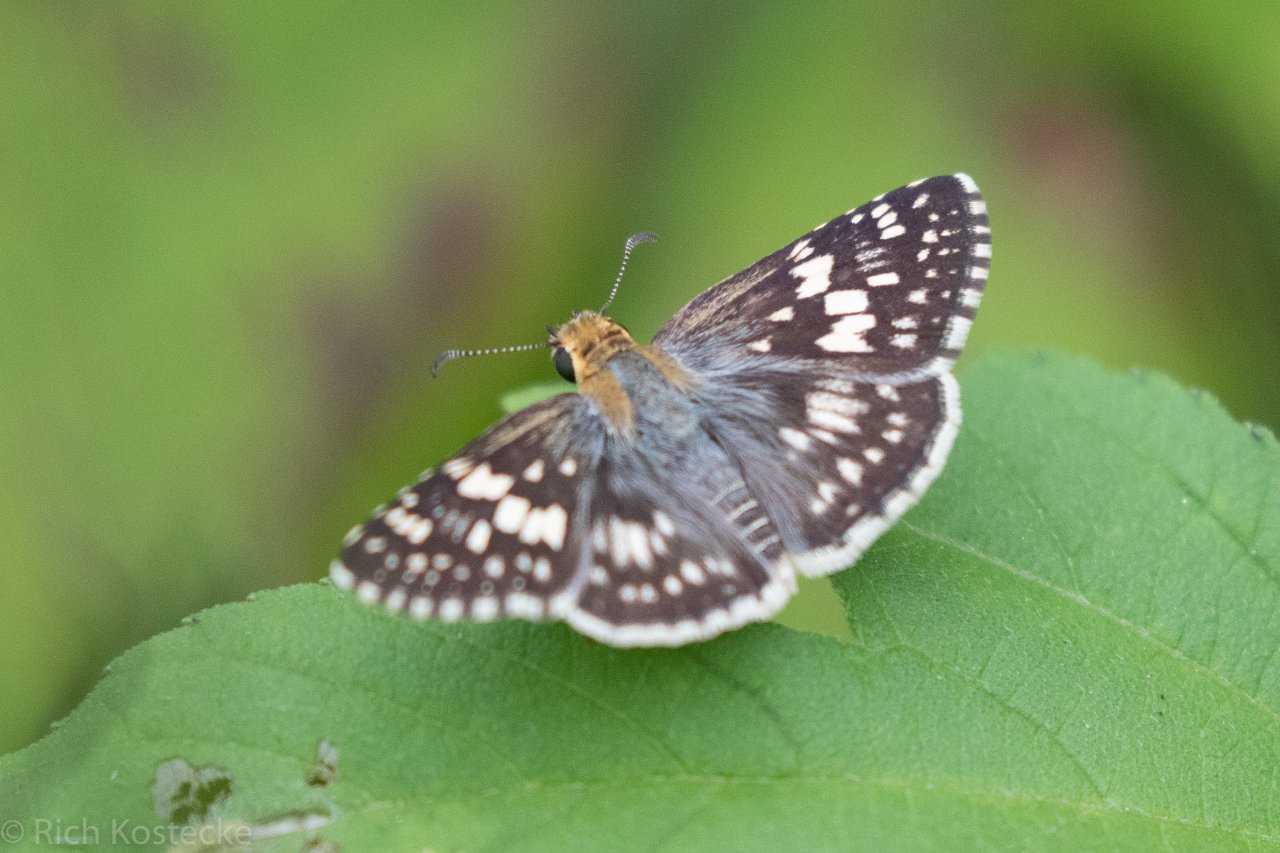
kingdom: Animalia
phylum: Arthropoda
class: Insecta
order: Lepidoptera
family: Hesperiidae
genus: Pyrgus
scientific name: Pyrgus
